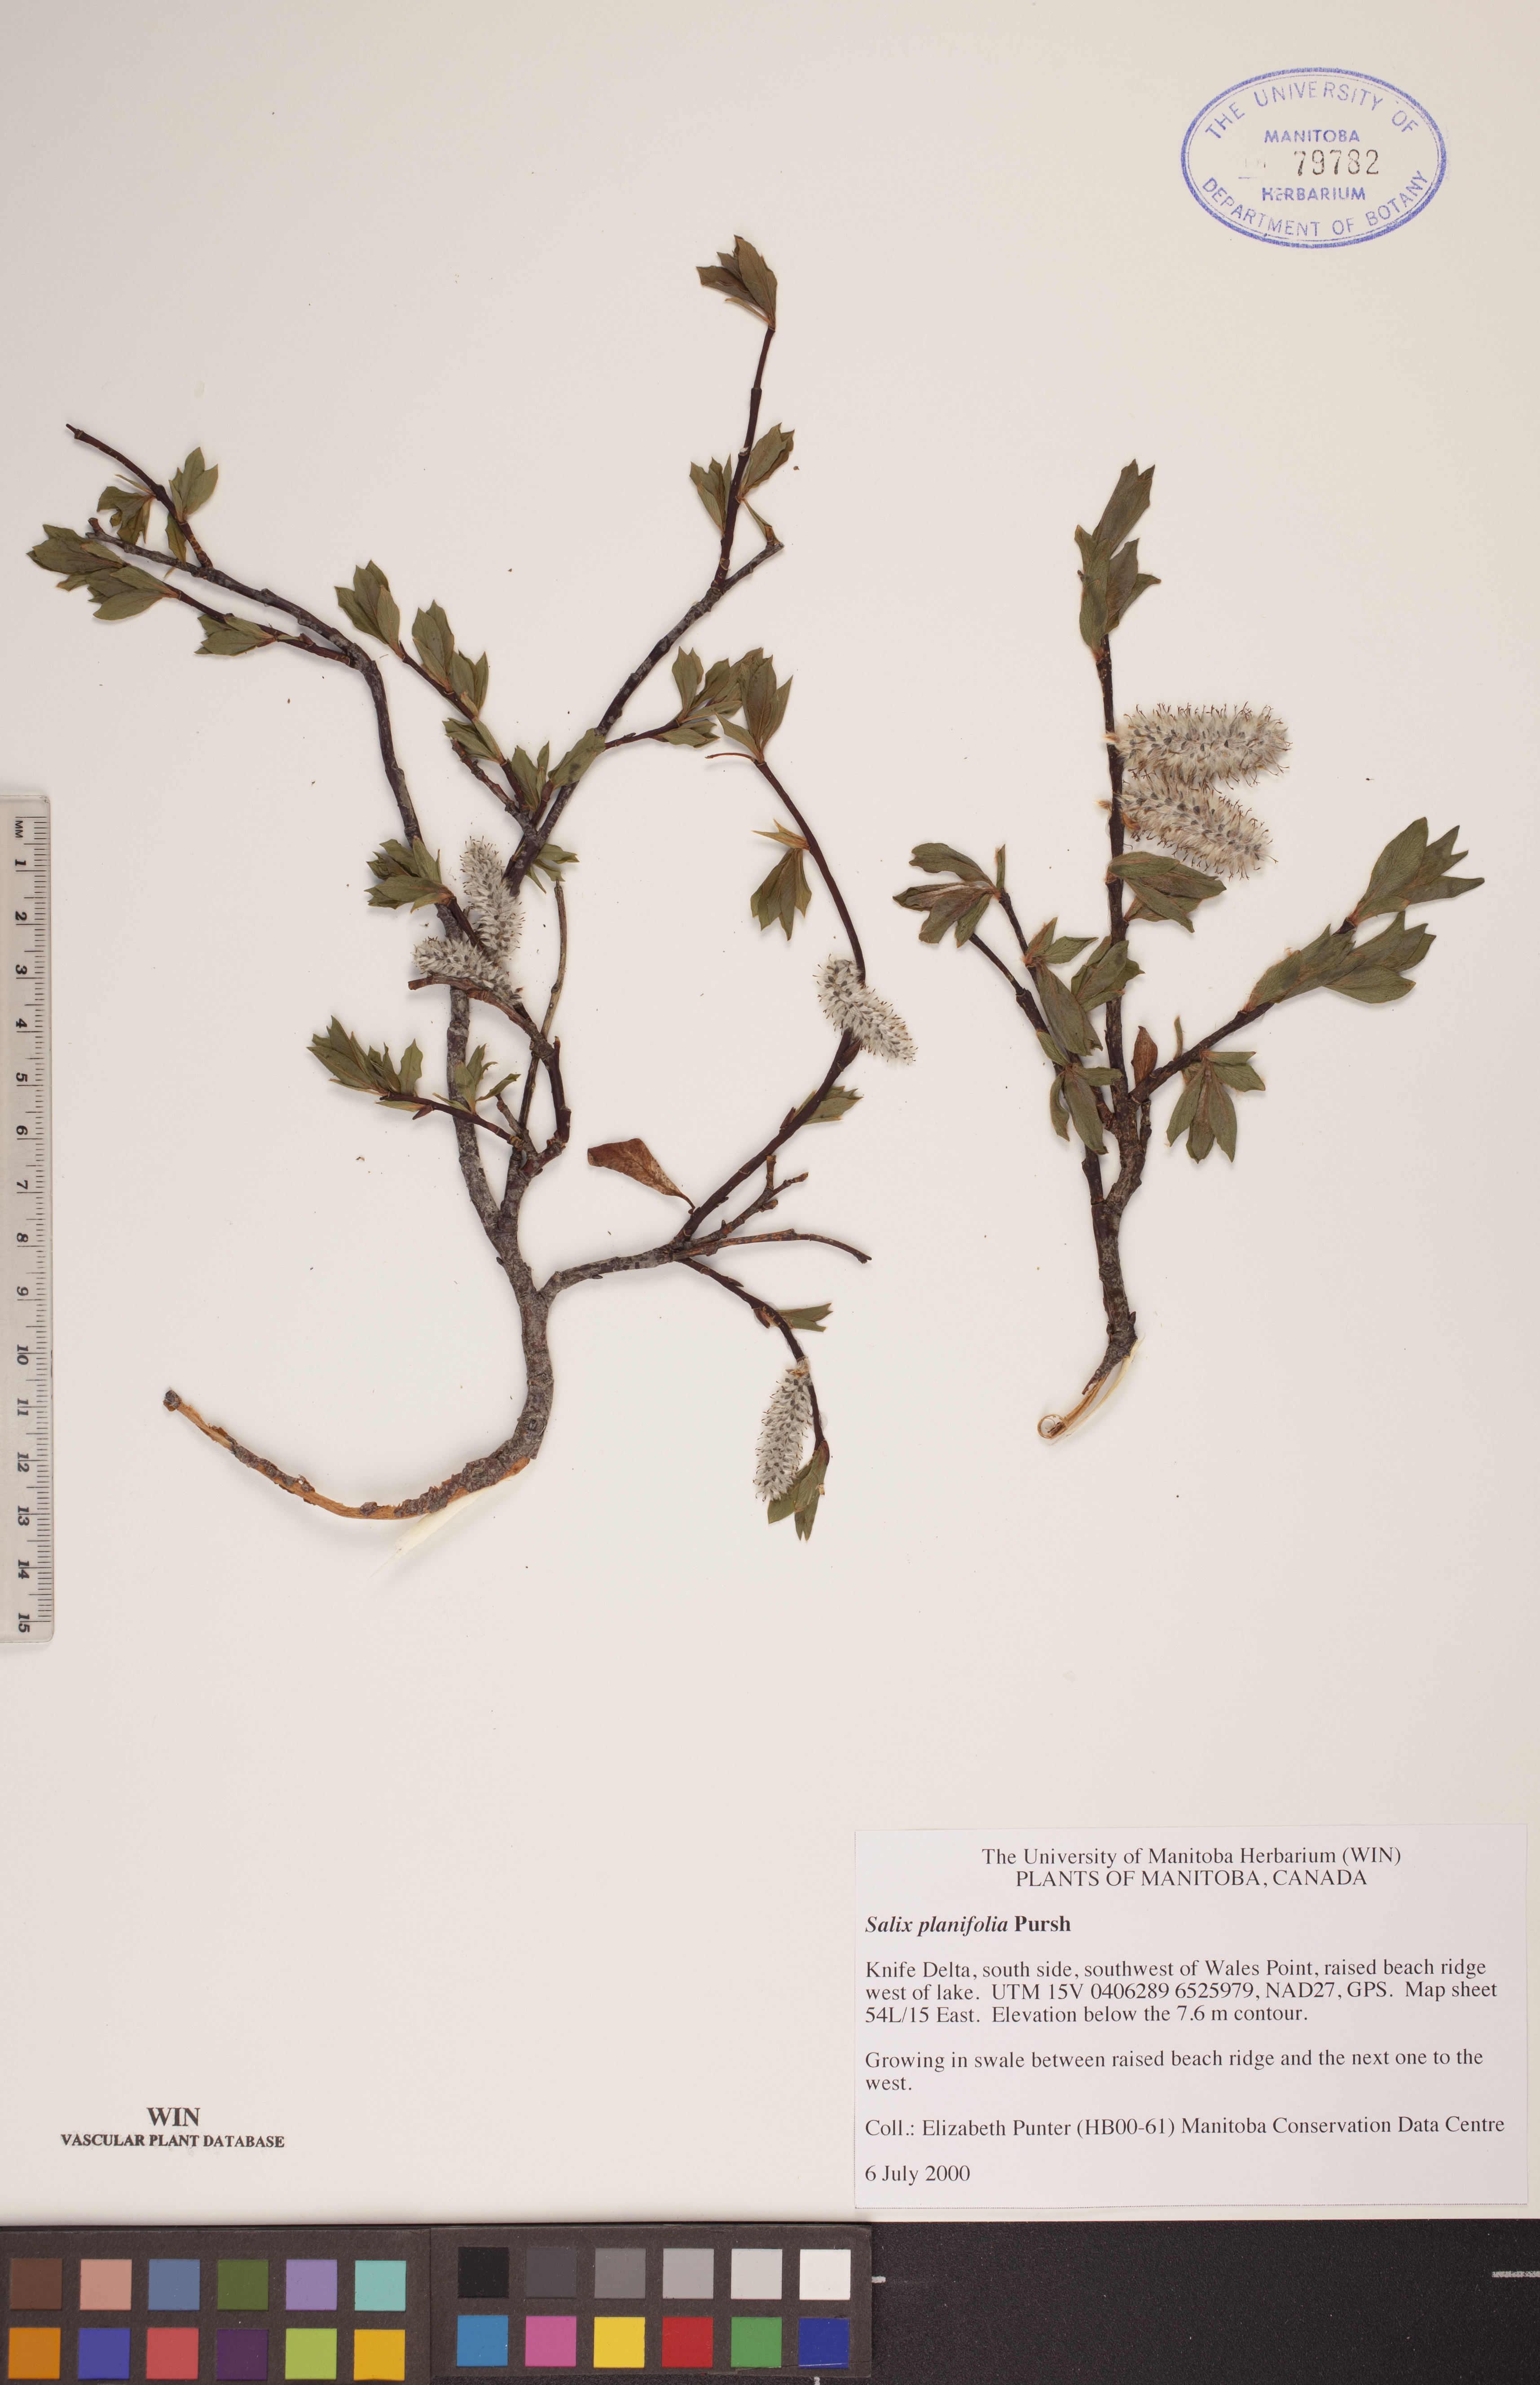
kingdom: Plantae
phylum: Tracheophyta
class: Magnoliopsida
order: Malpighiales
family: Salicaceae
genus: Salix
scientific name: Salix planifolia
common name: Mountain willow
